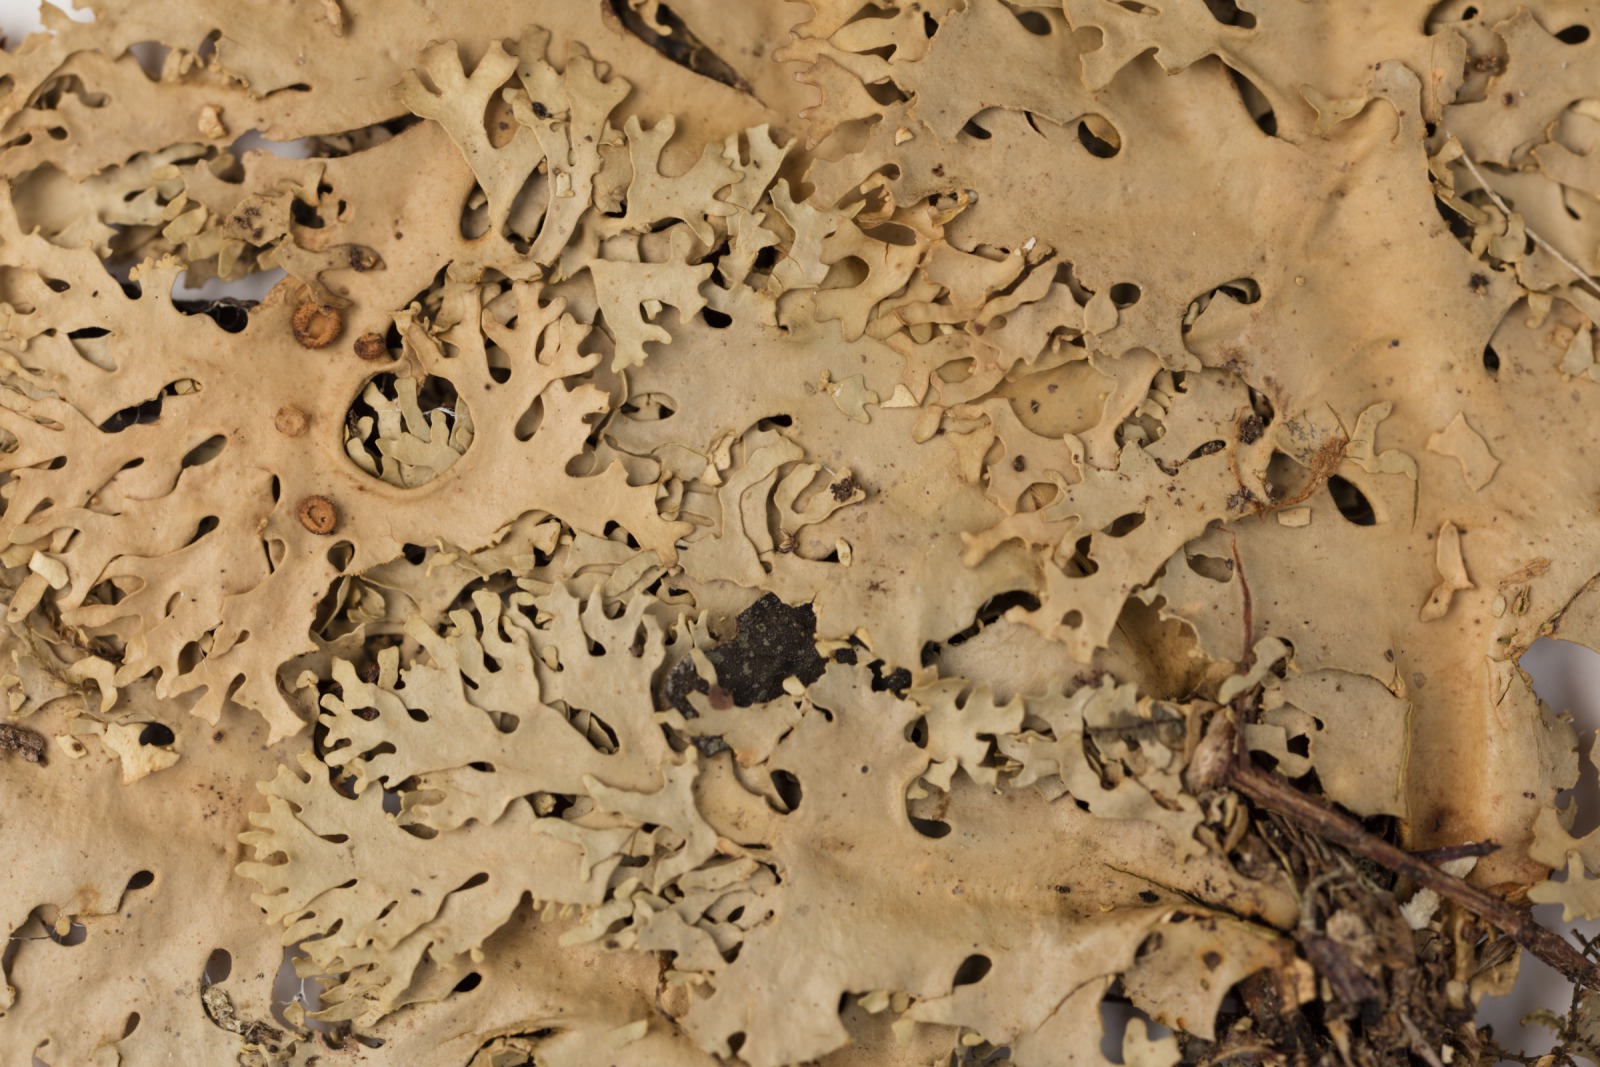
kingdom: Fungi
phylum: Ascomycota
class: Lecanoromycetes
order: Peltigerales
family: Lobariaceae
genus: Sticta
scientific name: Sticta filix
